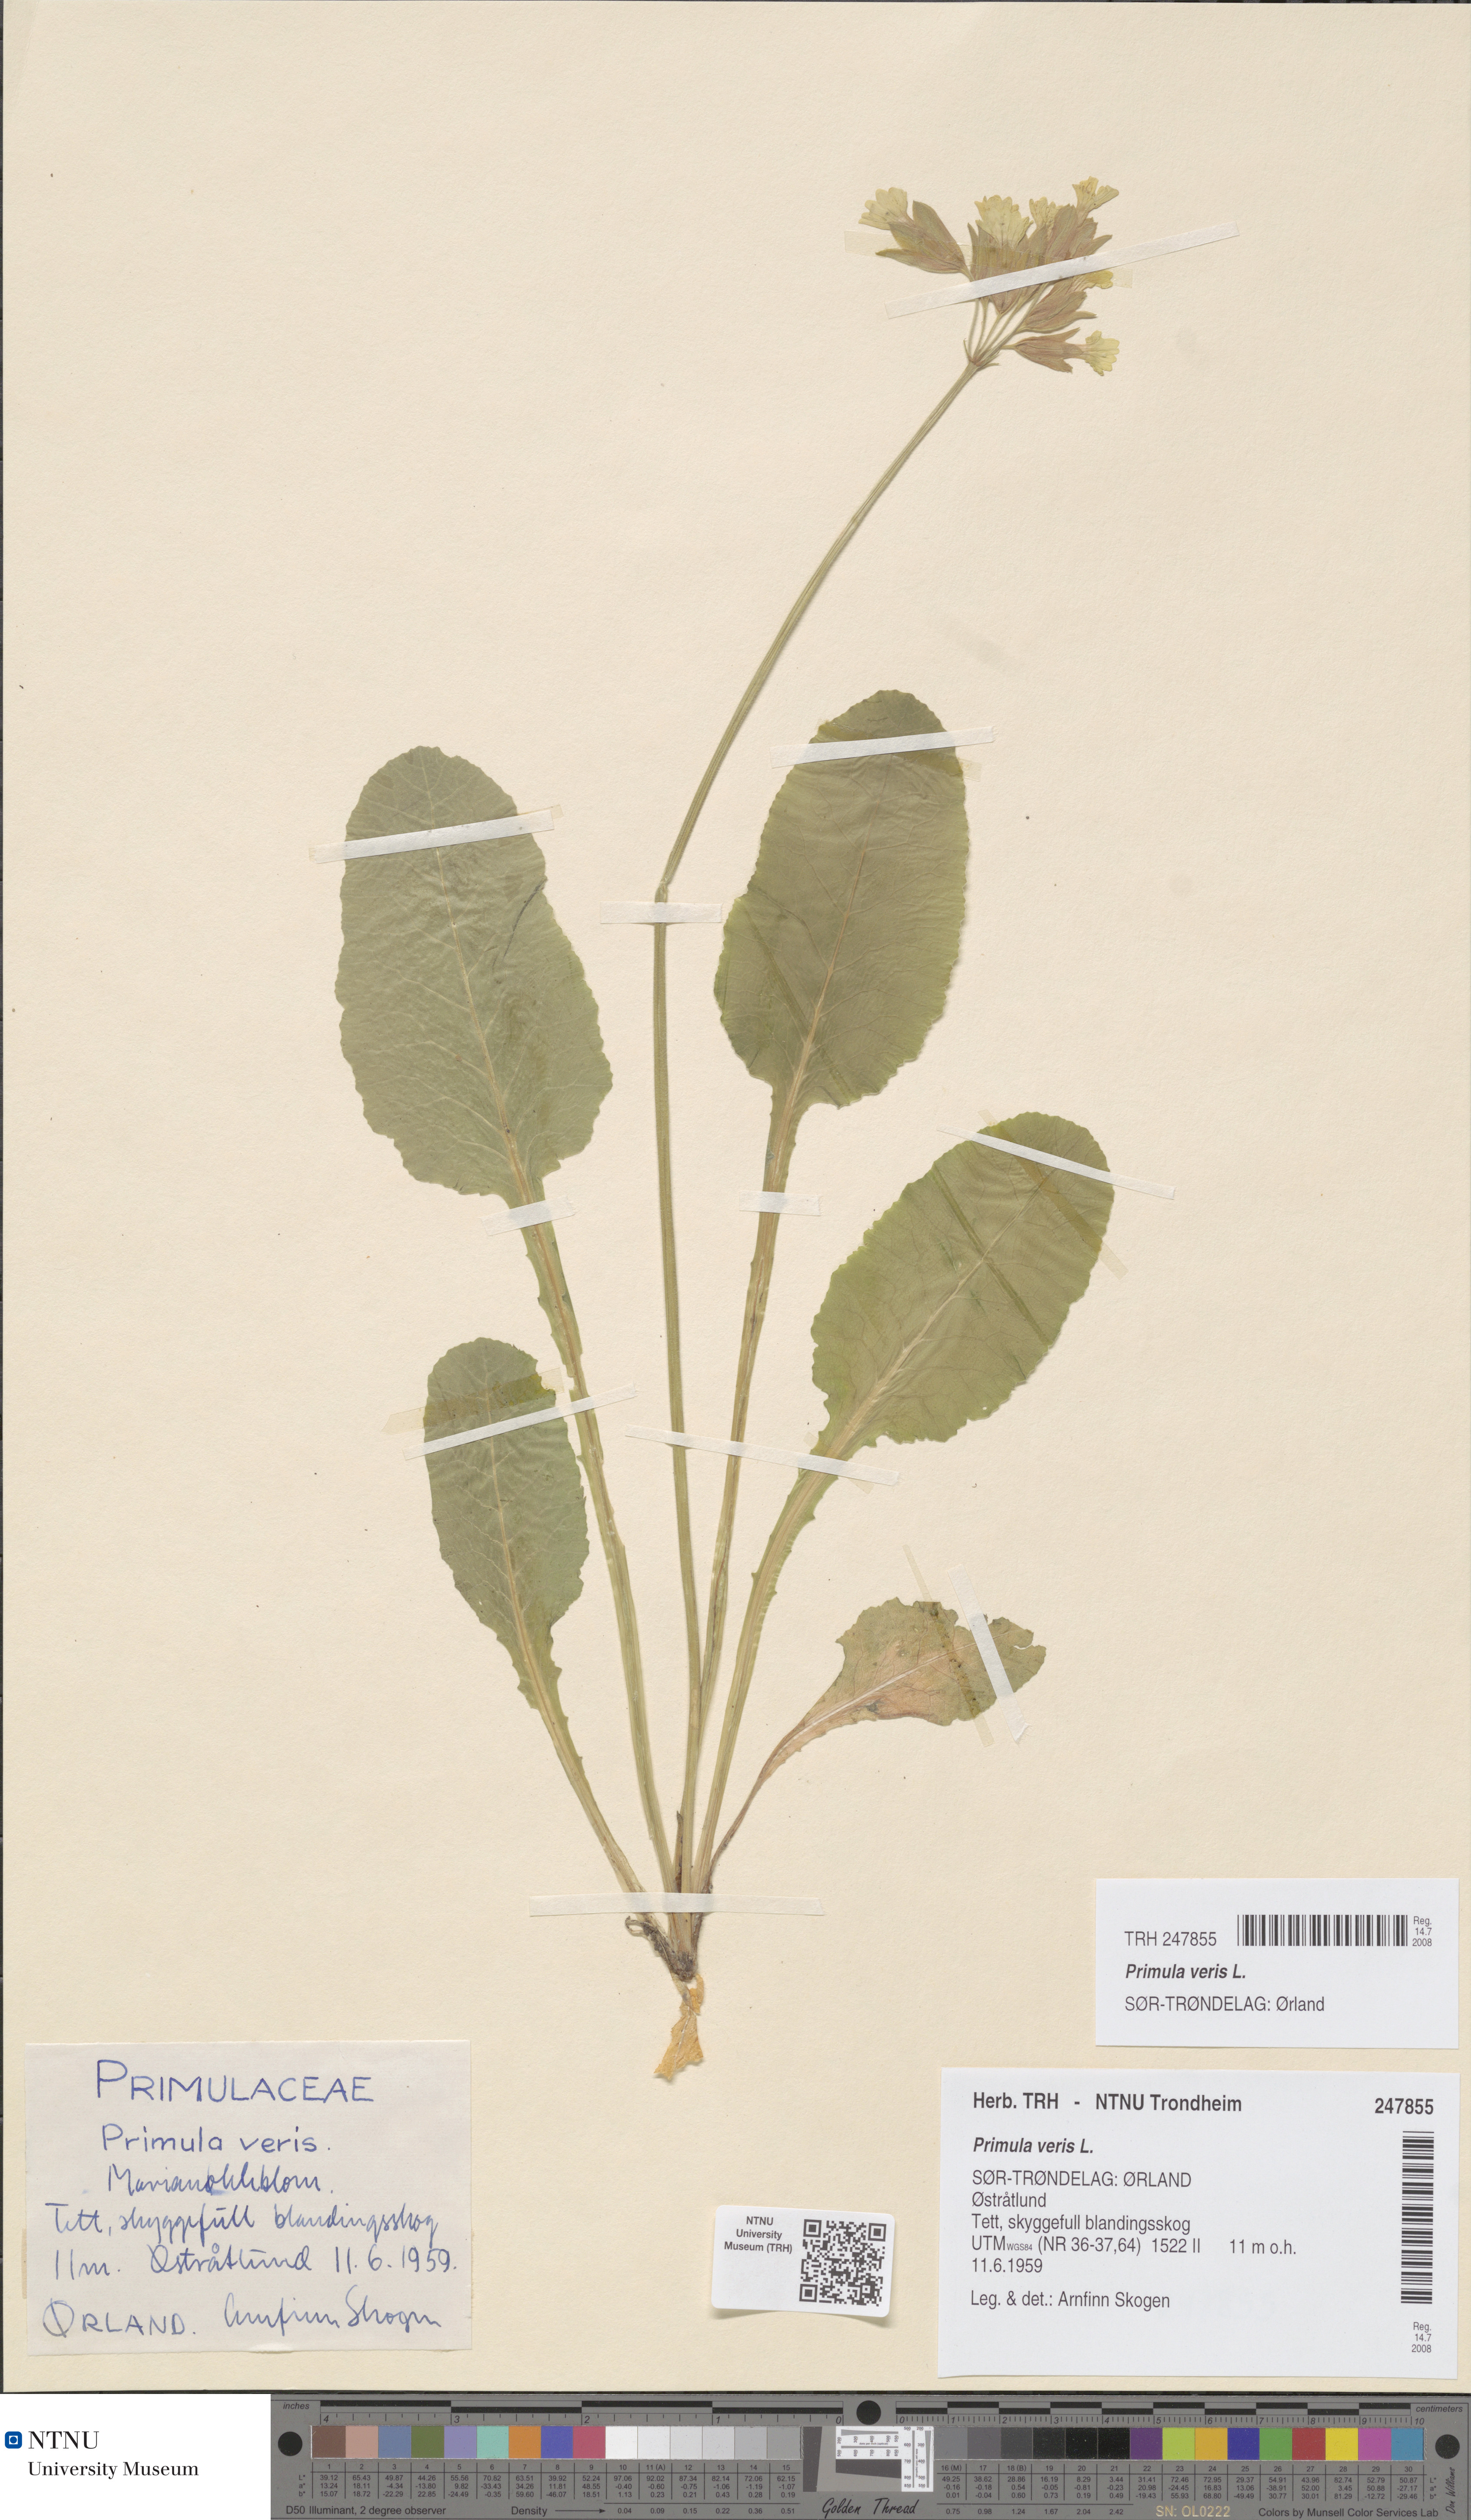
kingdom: Plantae
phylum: Tracheophyta
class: Magnoliopsida
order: Ericales
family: Primulaceae
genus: Primula
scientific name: Primula veris
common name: Cowslip
